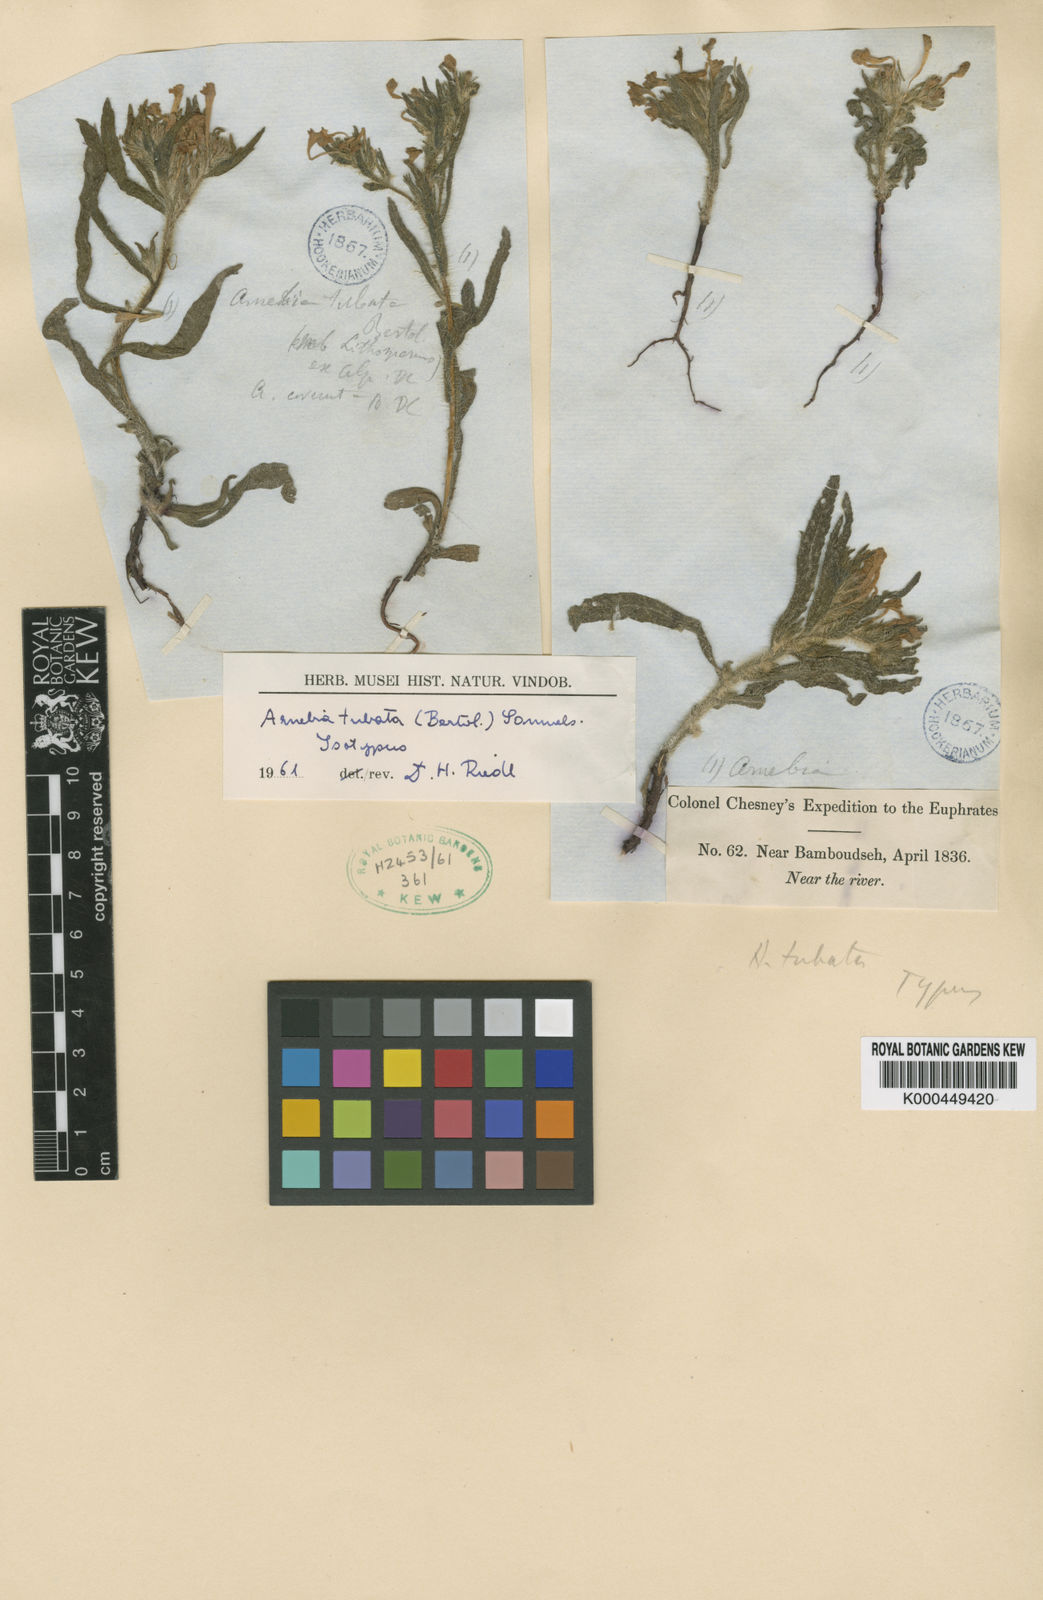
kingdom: Plantae
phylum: Tracheophyta
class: Magnoliopsida
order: Boraginales
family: Boraginaceae
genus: Arnebia
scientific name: Arnebia decumbens
